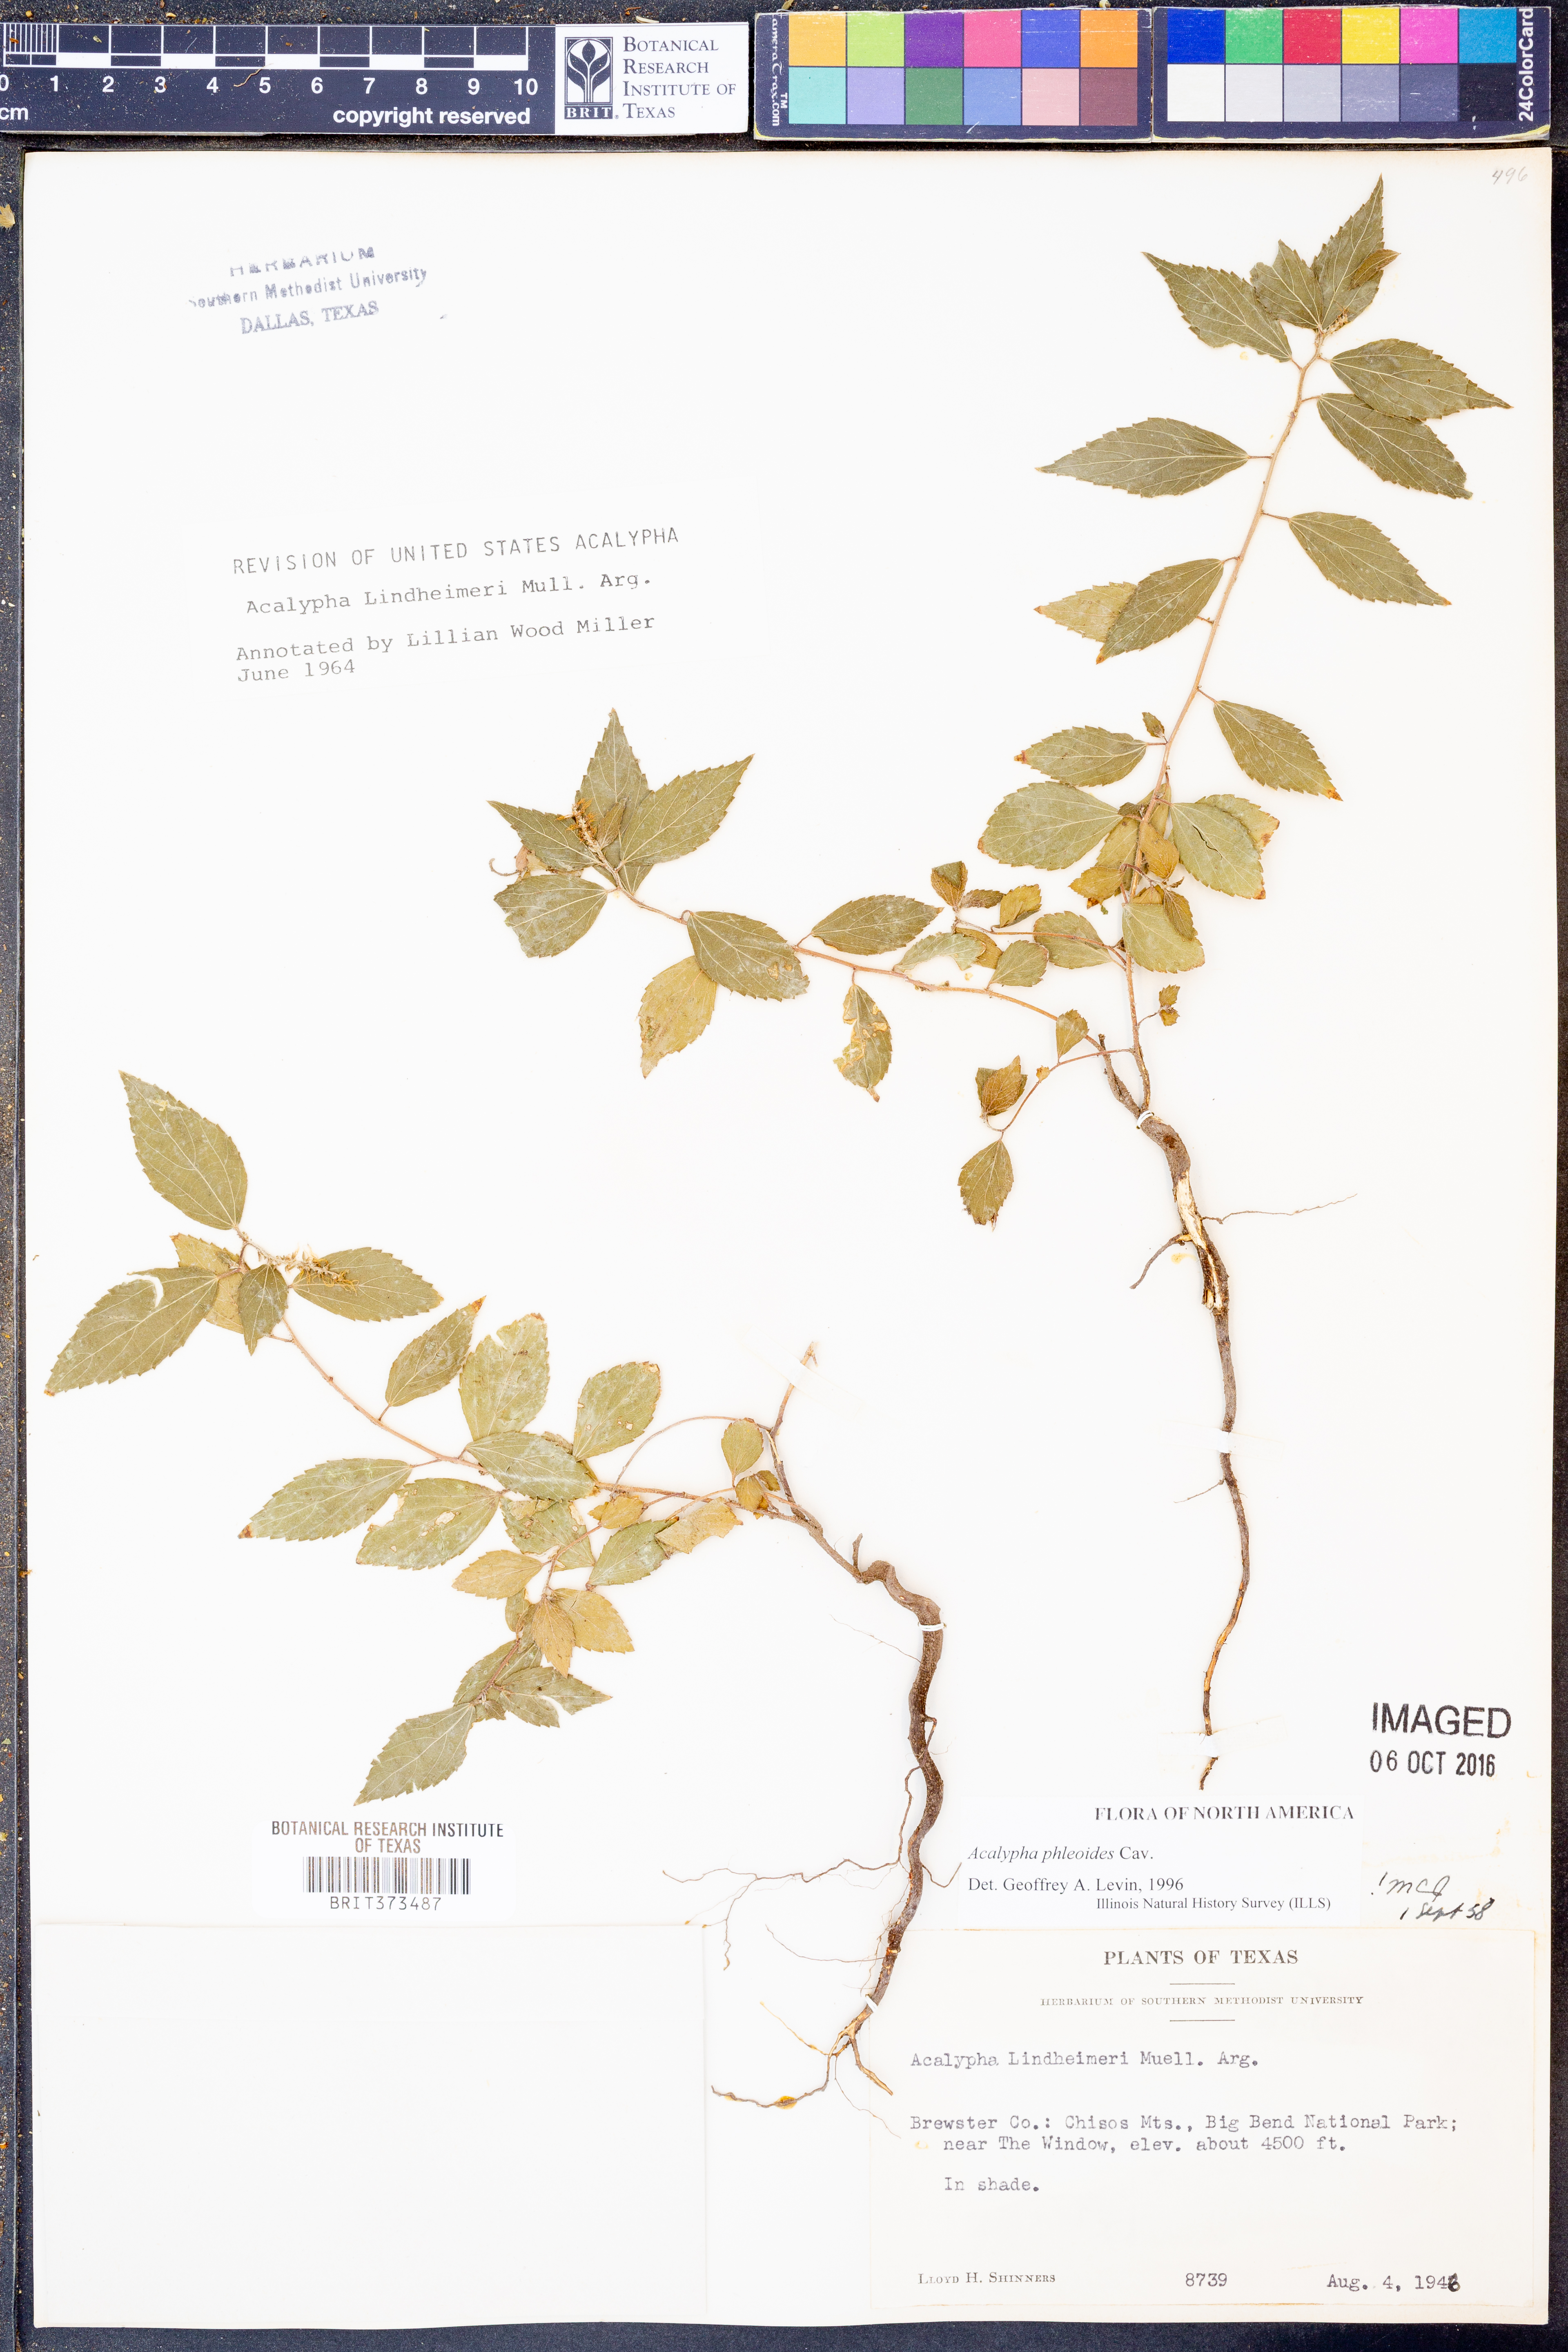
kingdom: Plantae
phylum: Tracheophyta
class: Magnoliopsida
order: Malpighiales
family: Euphorbiaceae
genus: Acalypha
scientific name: Acalypha phleoides
